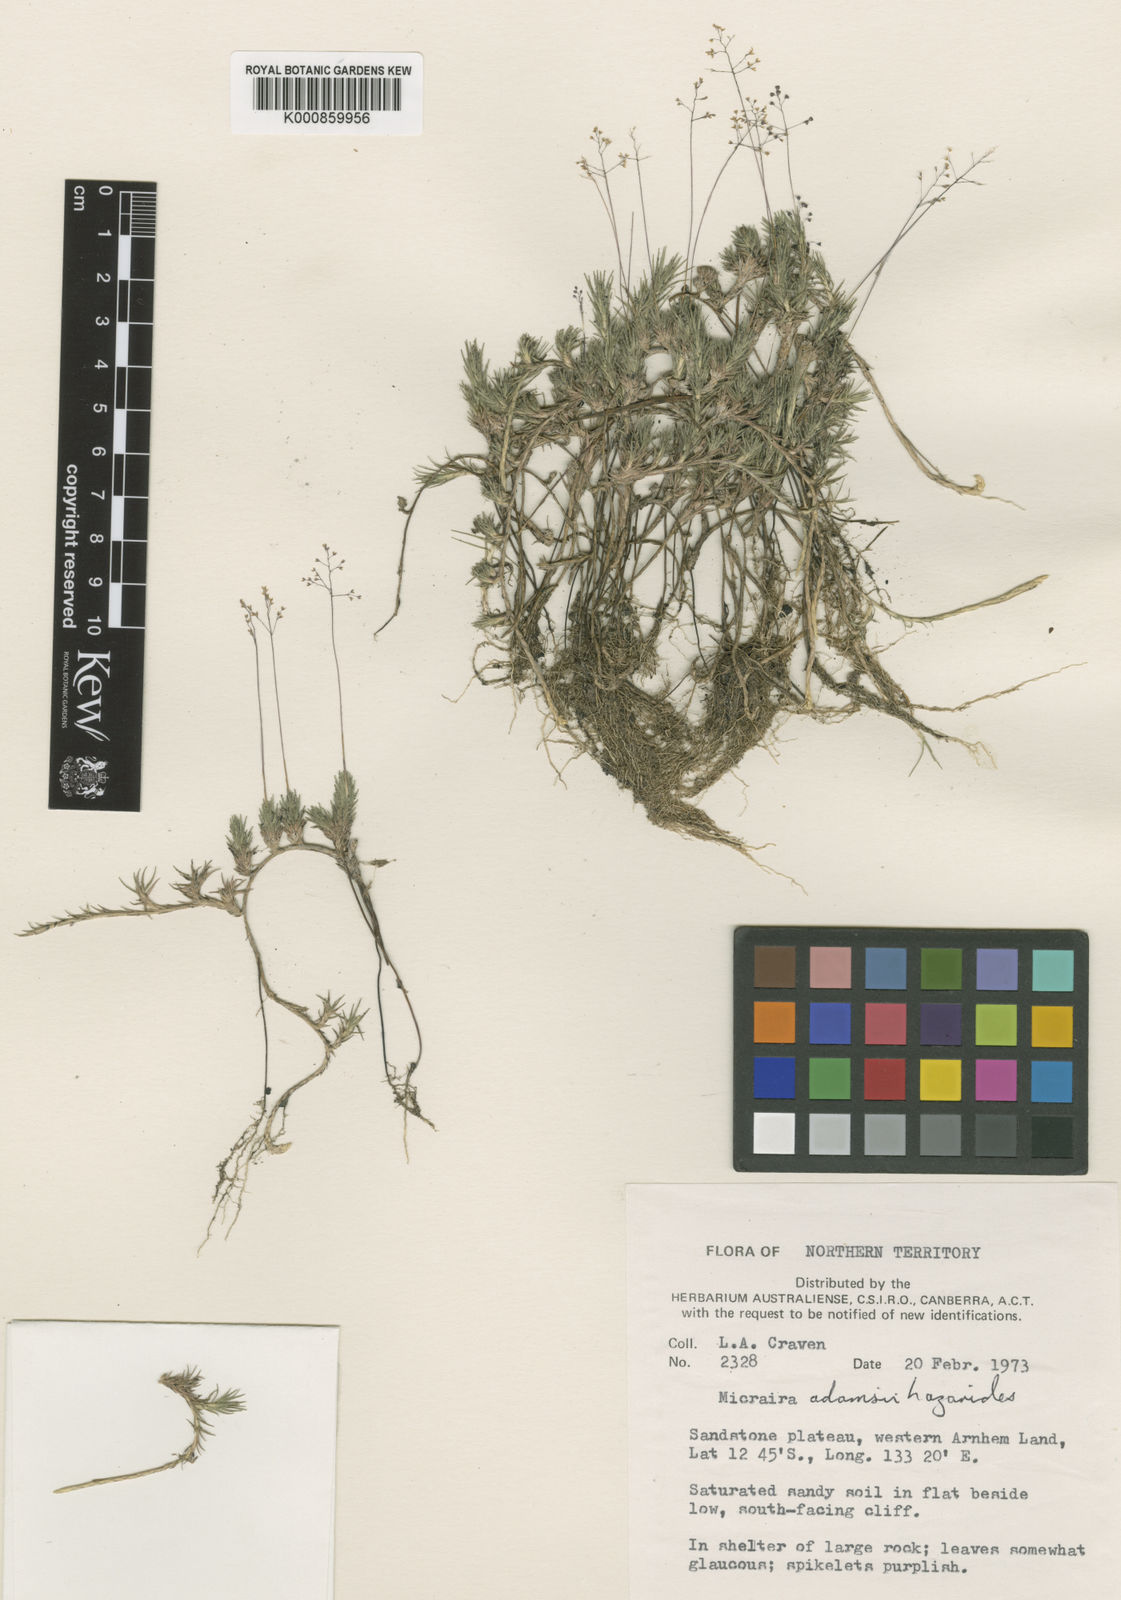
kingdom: Plantae
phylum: Tracheophyta
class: Liliopsida
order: Poales
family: Poaceae
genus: Micraira
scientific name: Micraira adamsii
